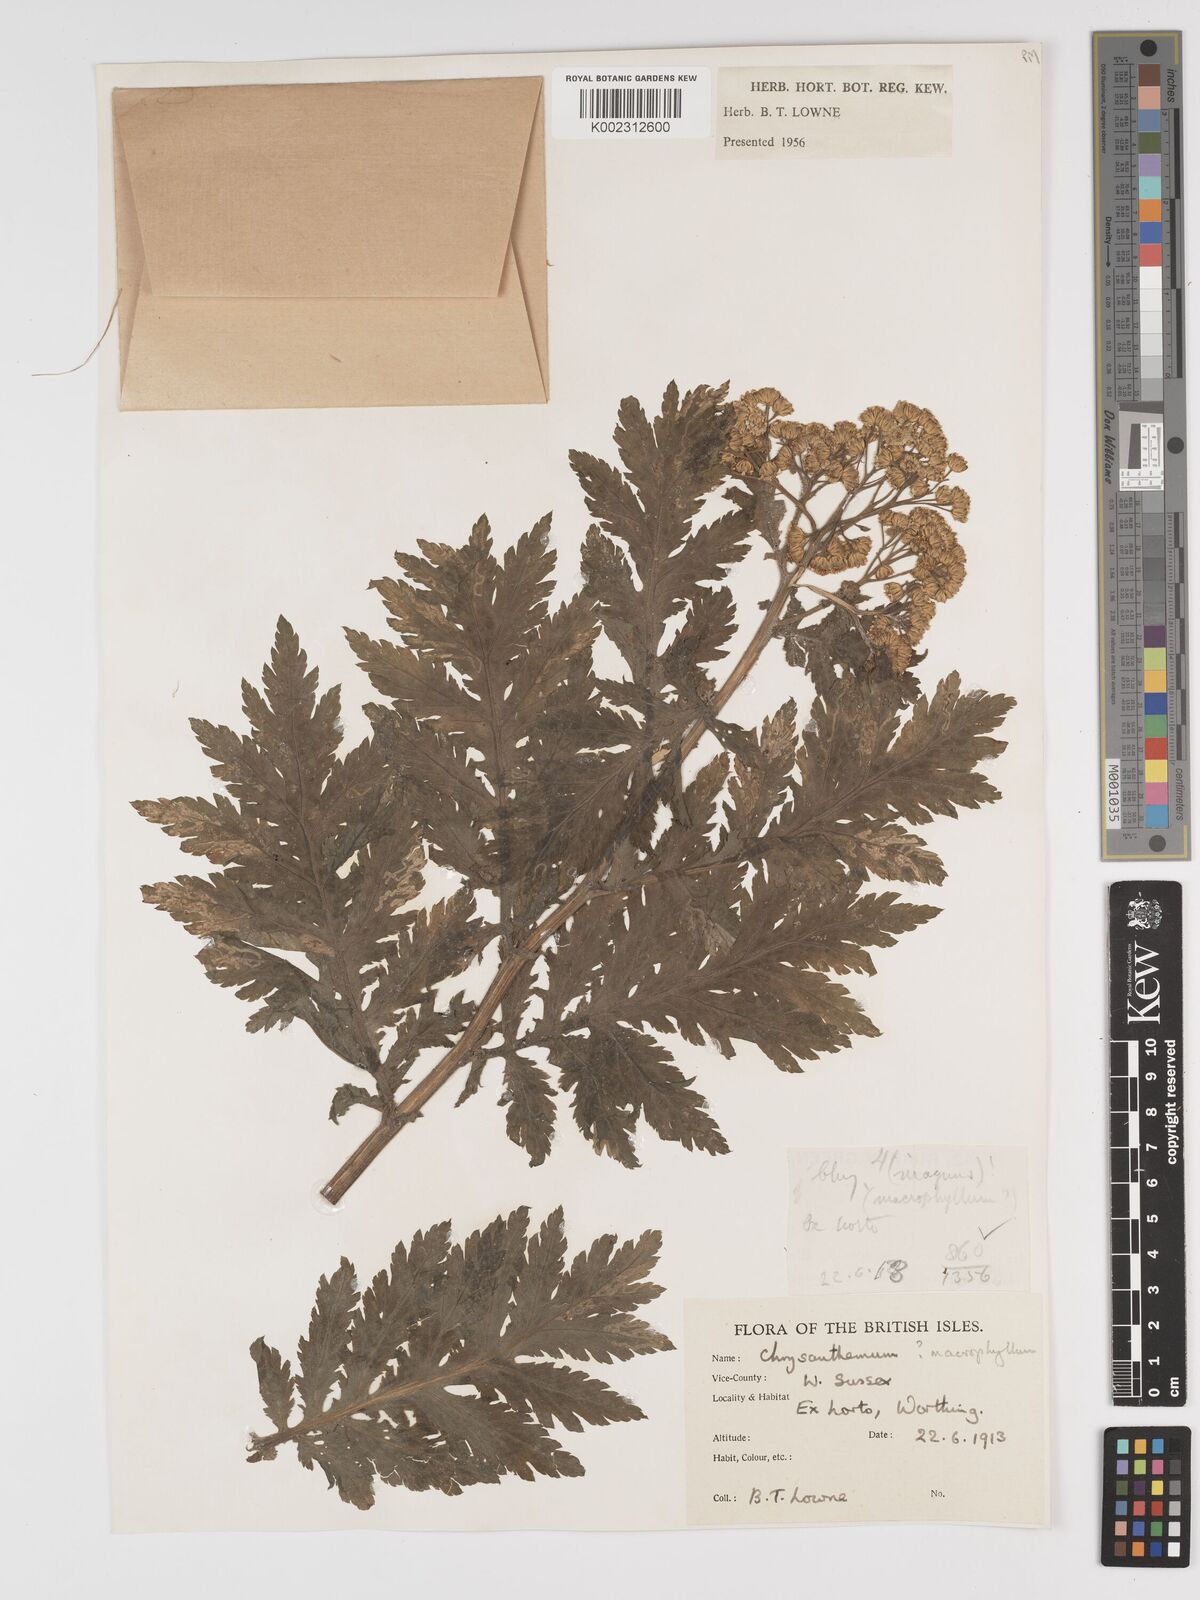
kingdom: Plantae
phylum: Tracheophyta
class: Magnoliopsida
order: Asterales
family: Asteraceae
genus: Tanacetum
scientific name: Tanacetum macrophyllum
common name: Rayed tansy
